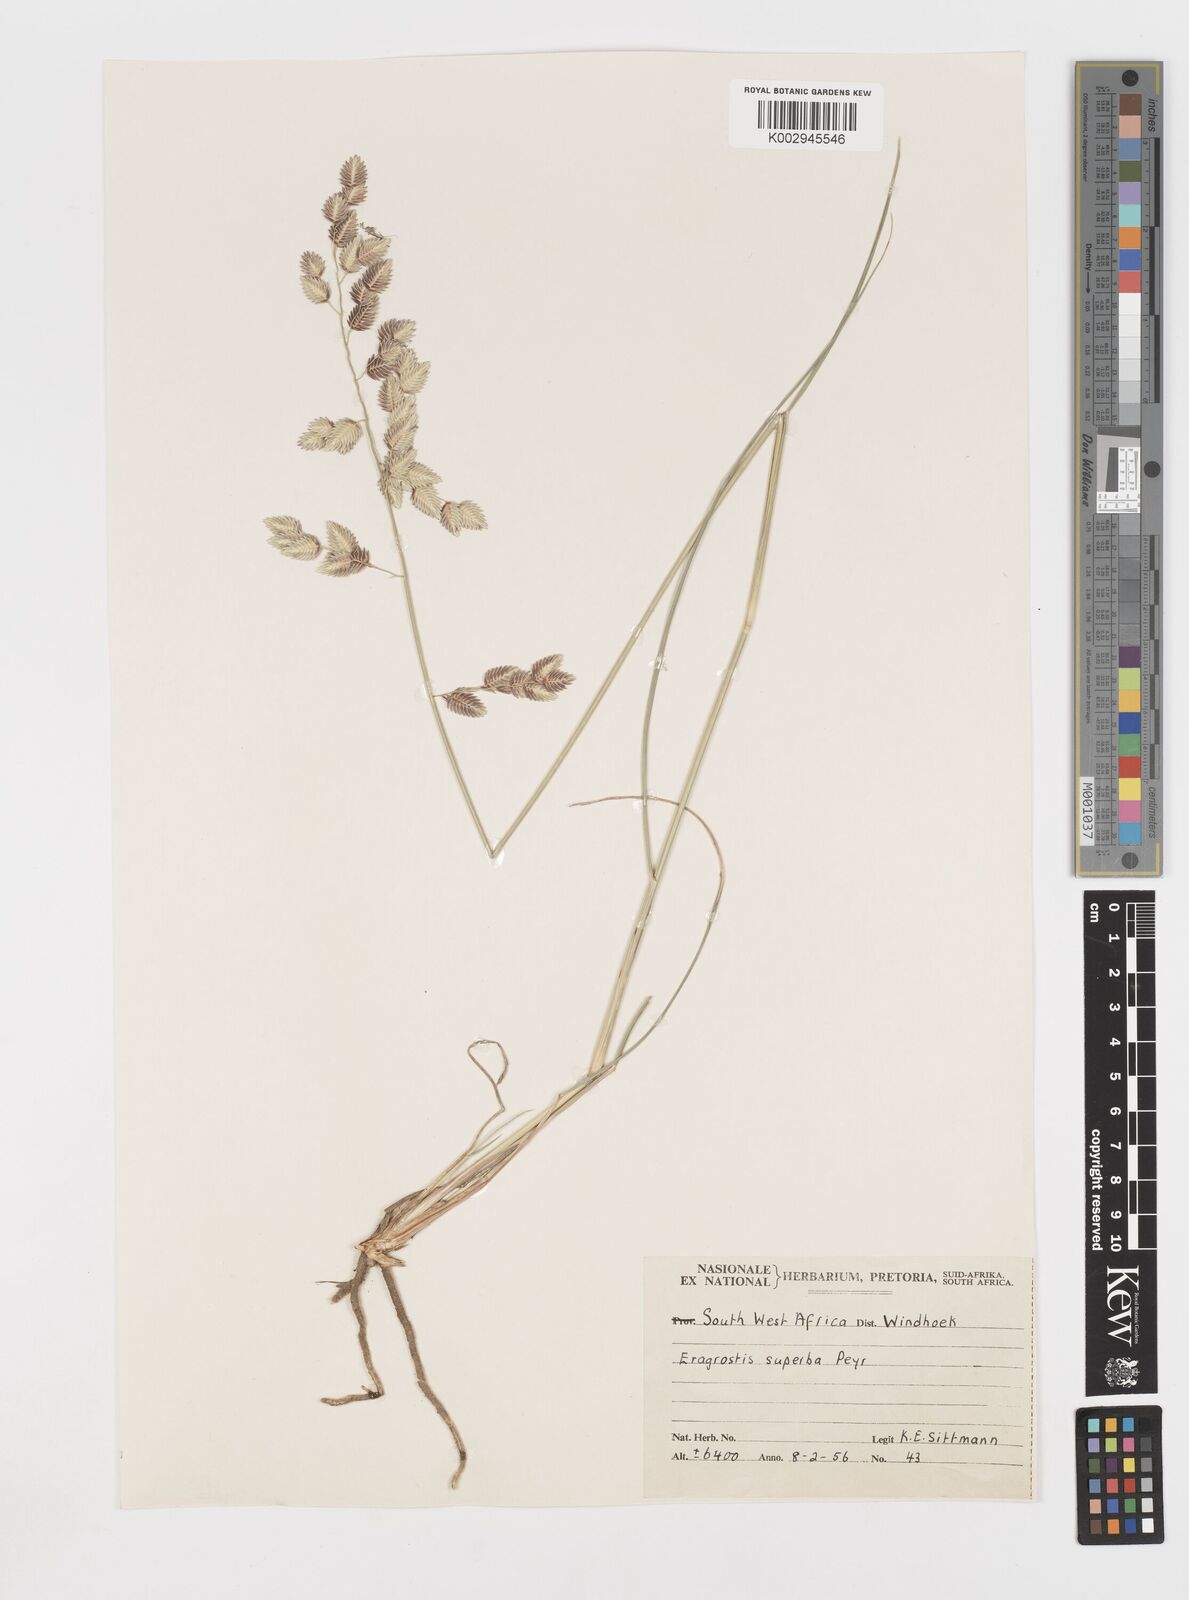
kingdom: Plantae
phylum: Tracheophyta
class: Liliopsida
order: Poales
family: Poaceae
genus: Eragrostis
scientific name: Eragrostis superba
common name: Wilman lovegrass
